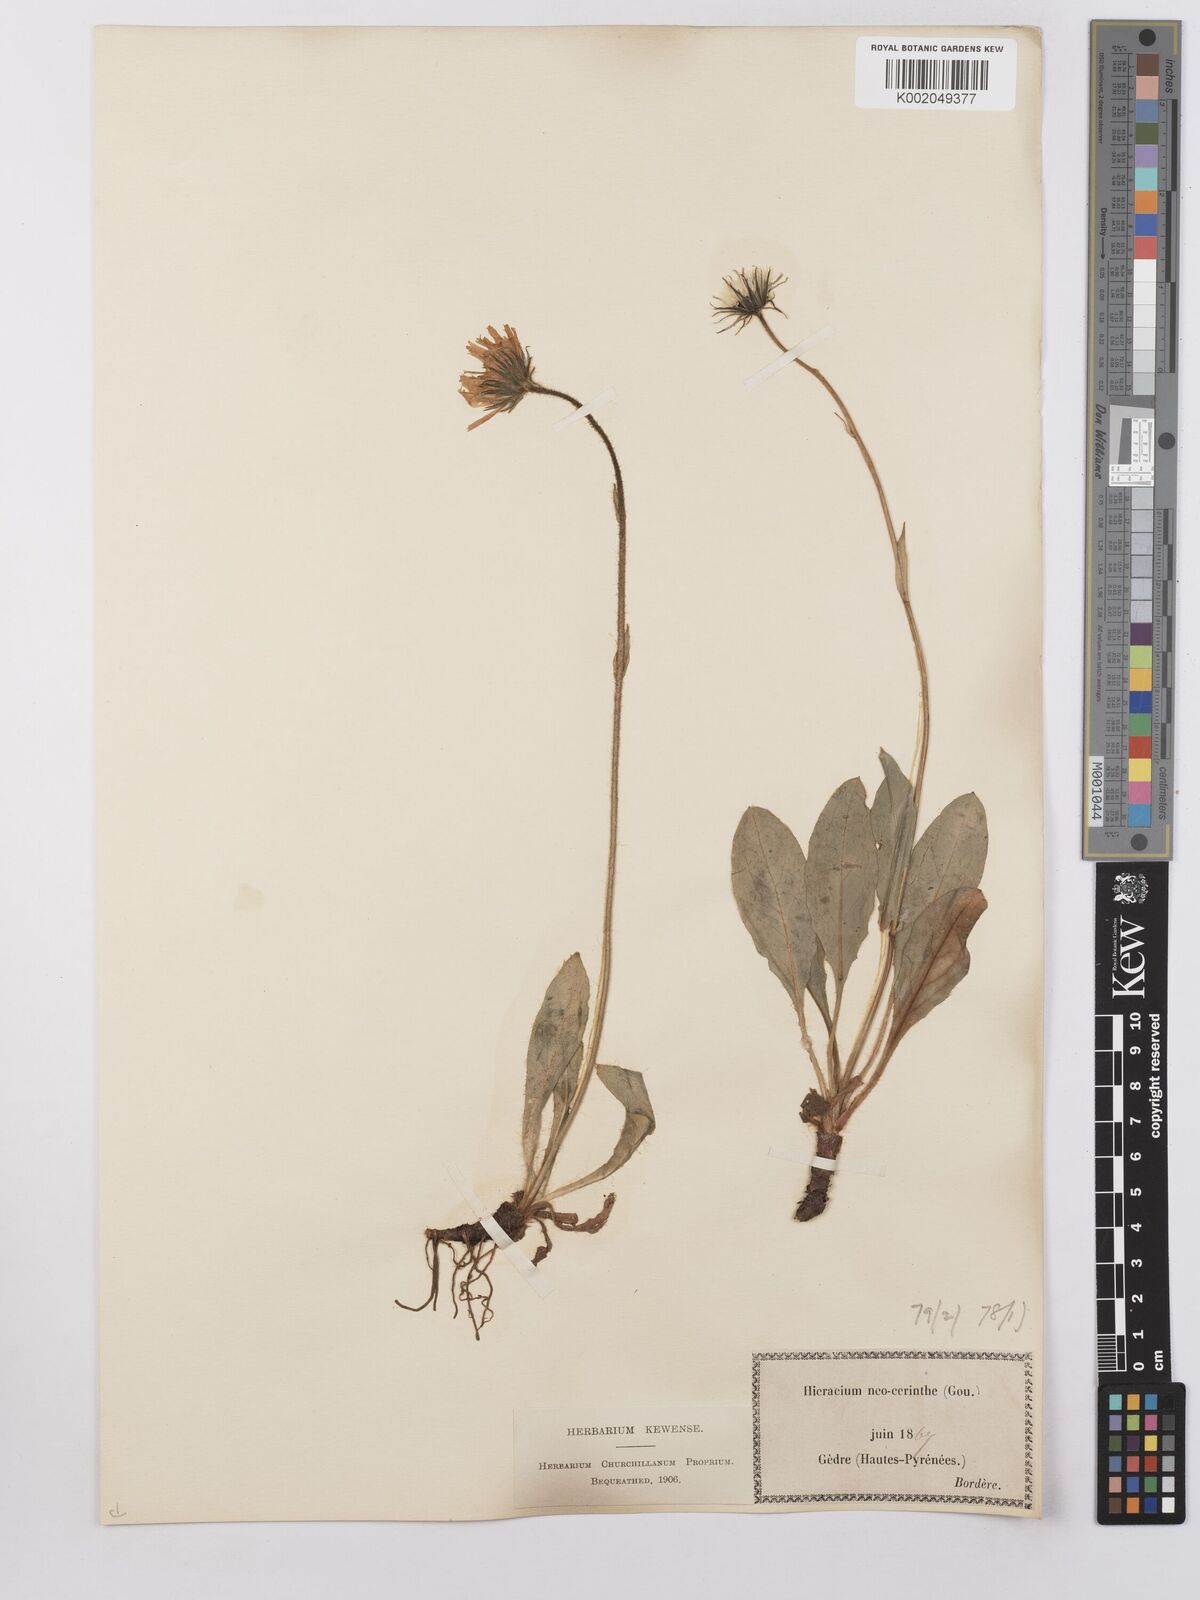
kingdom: Plantae
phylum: Tracheophyta
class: Magnoliopsida
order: Asterales
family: Asteraceae
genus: Hieracium
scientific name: Hieracium cerinthoides
